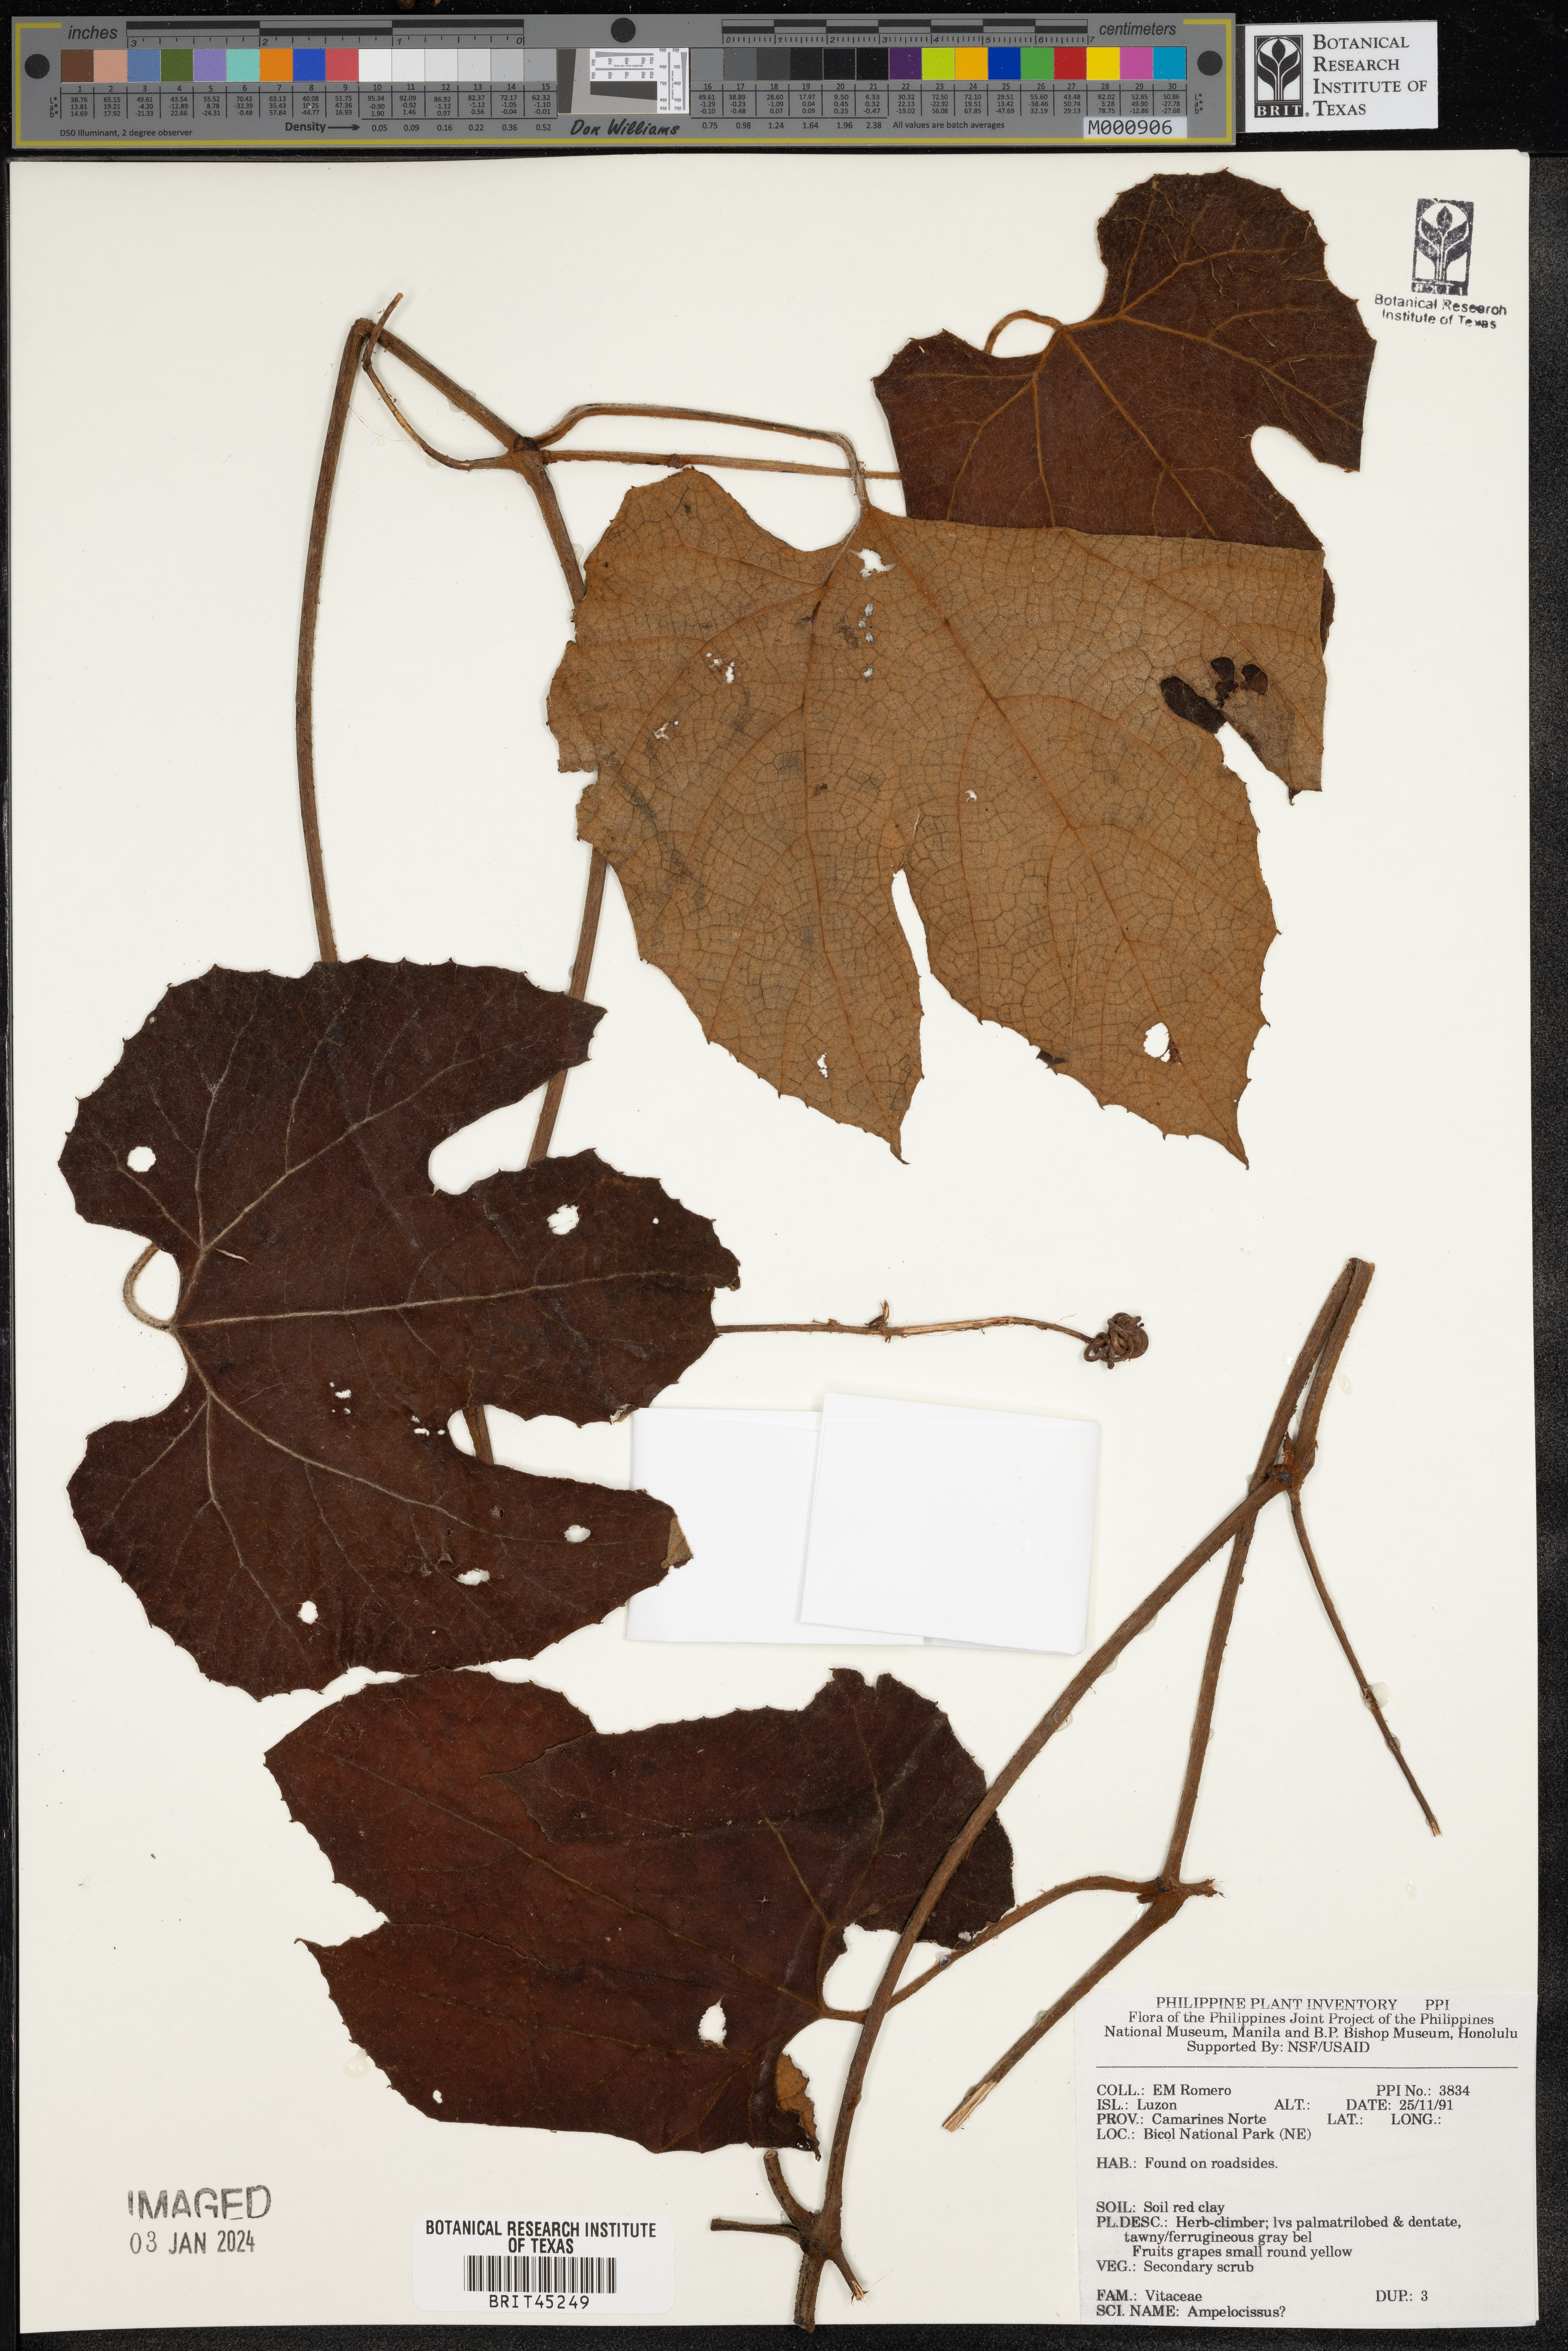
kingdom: Plantae
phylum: Tracheophyta
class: Magnoliopsida
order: Vitales
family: Vitaceae
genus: Ampelocissus
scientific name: Ampelocissus
